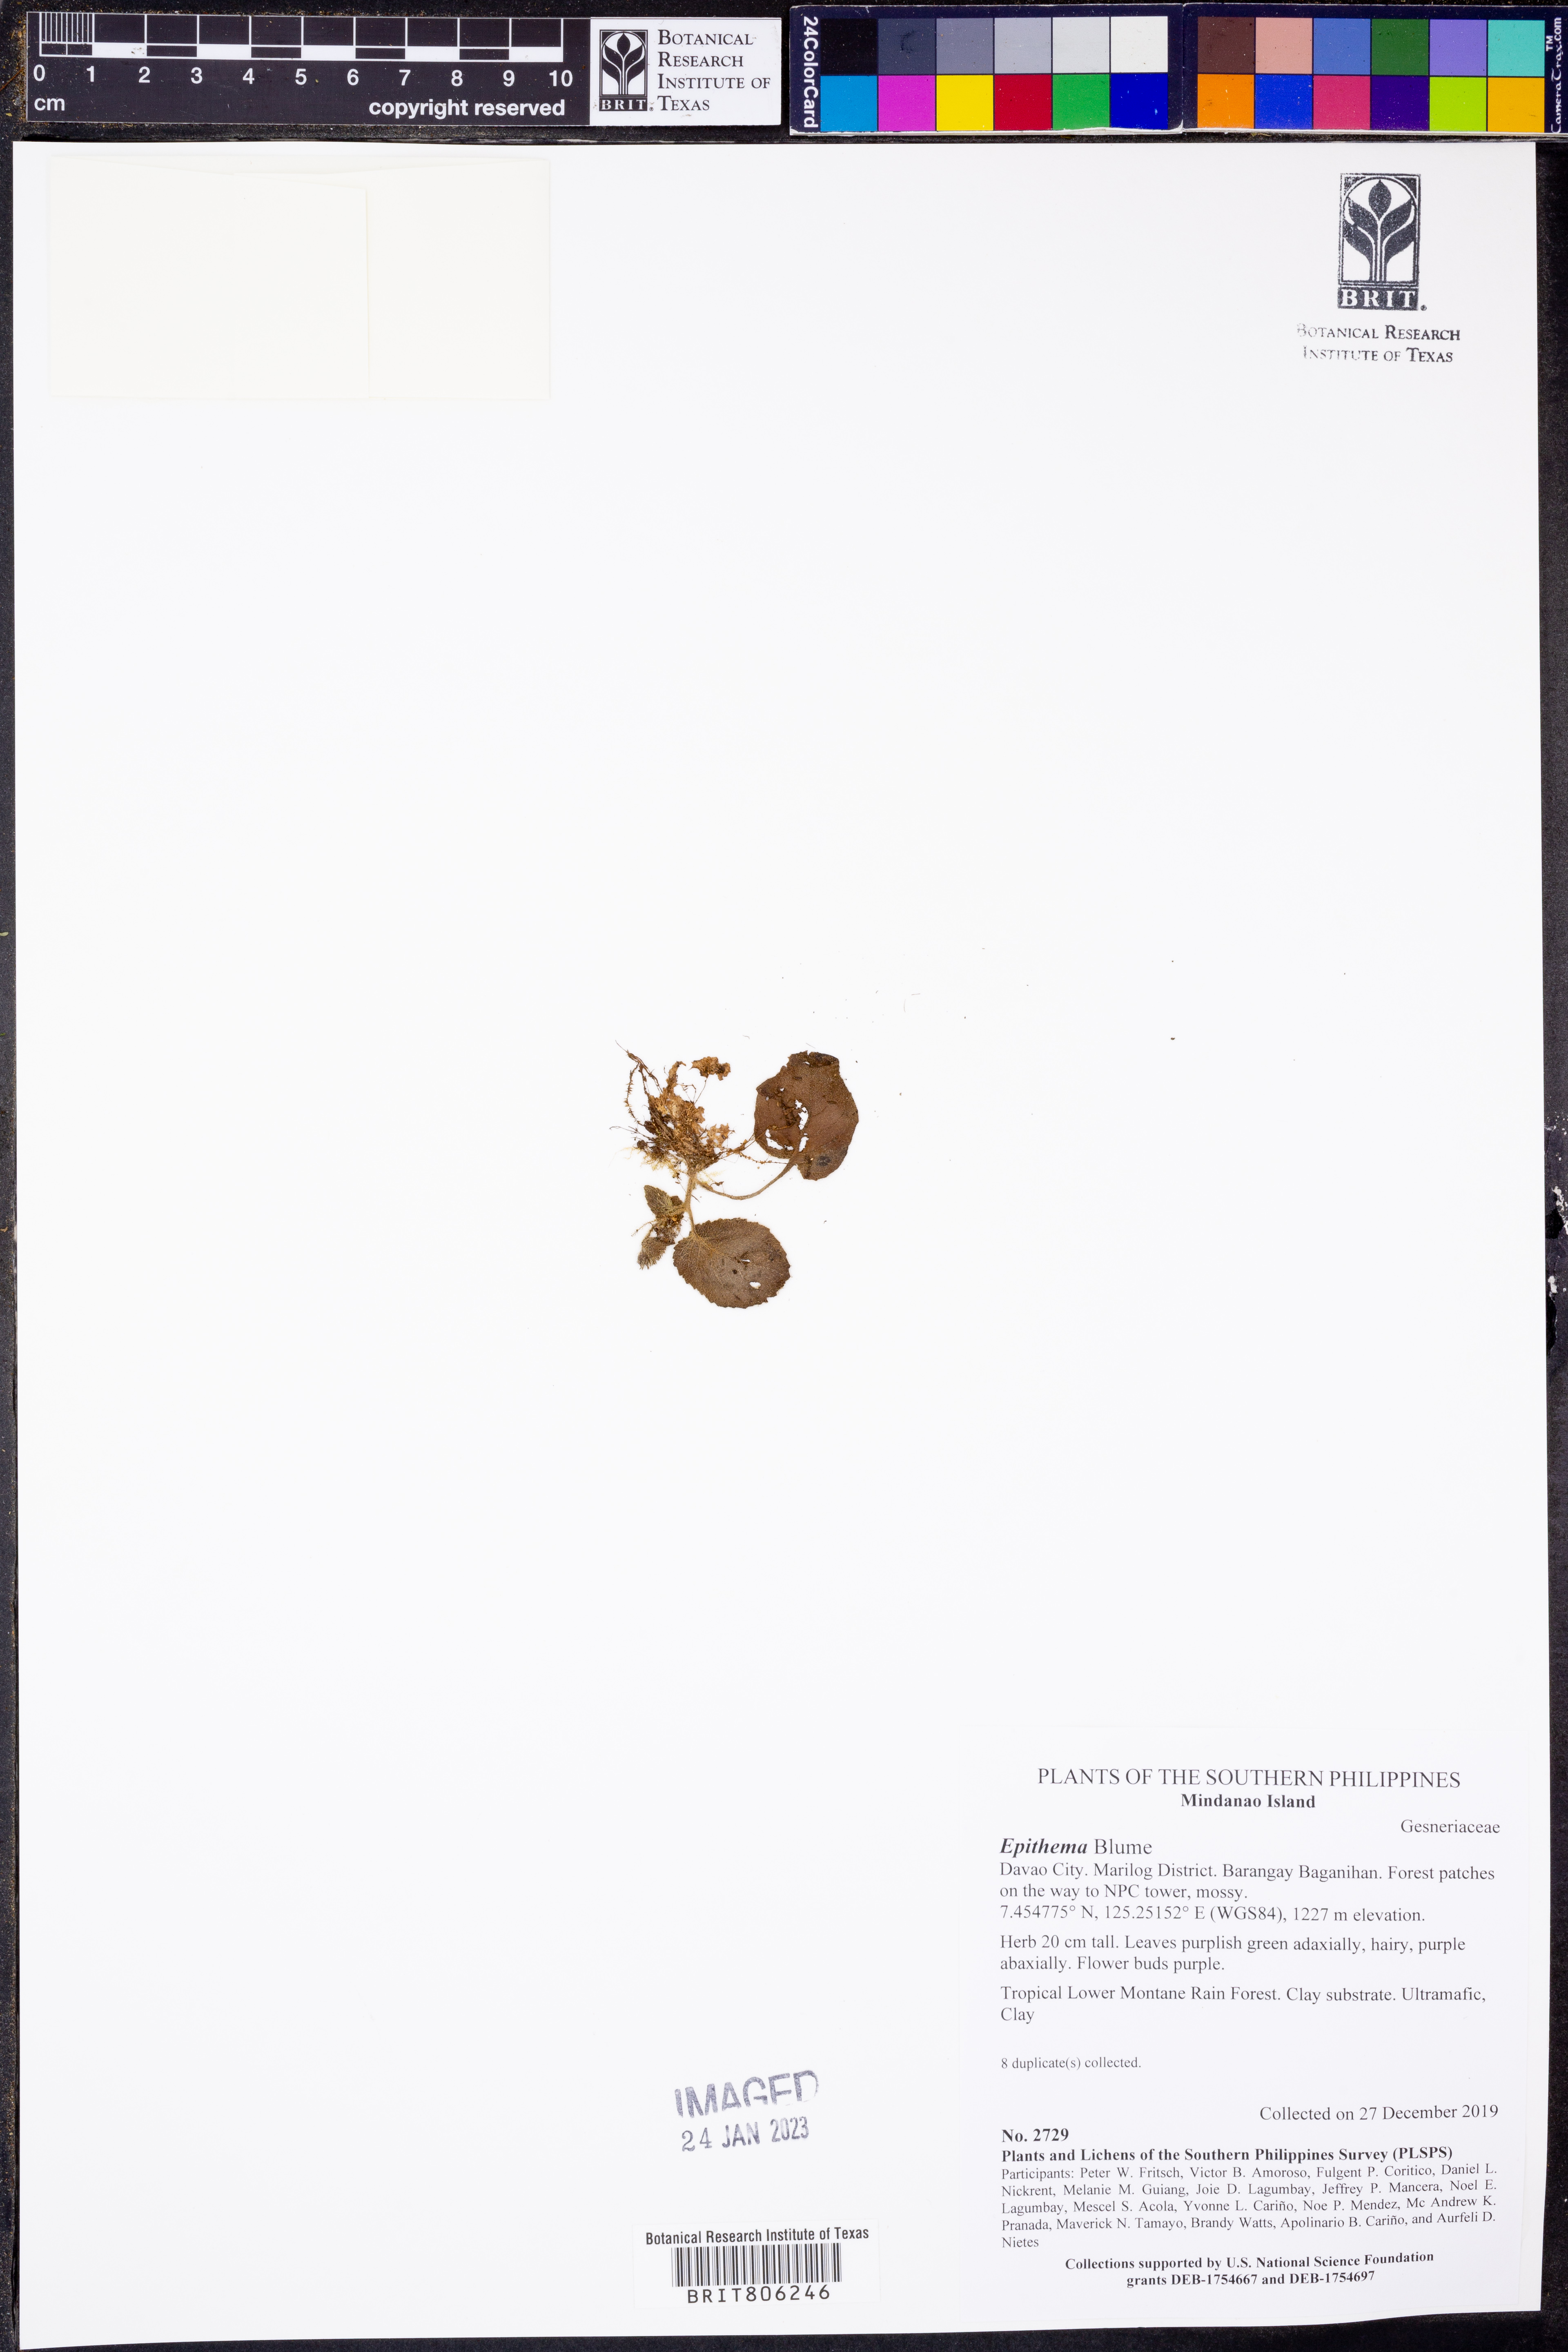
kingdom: Plantae
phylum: Tracheophyta
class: Magnoliopsida
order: Lamiales
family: Gesneriaceae
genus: Epithema
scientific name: Epithema
